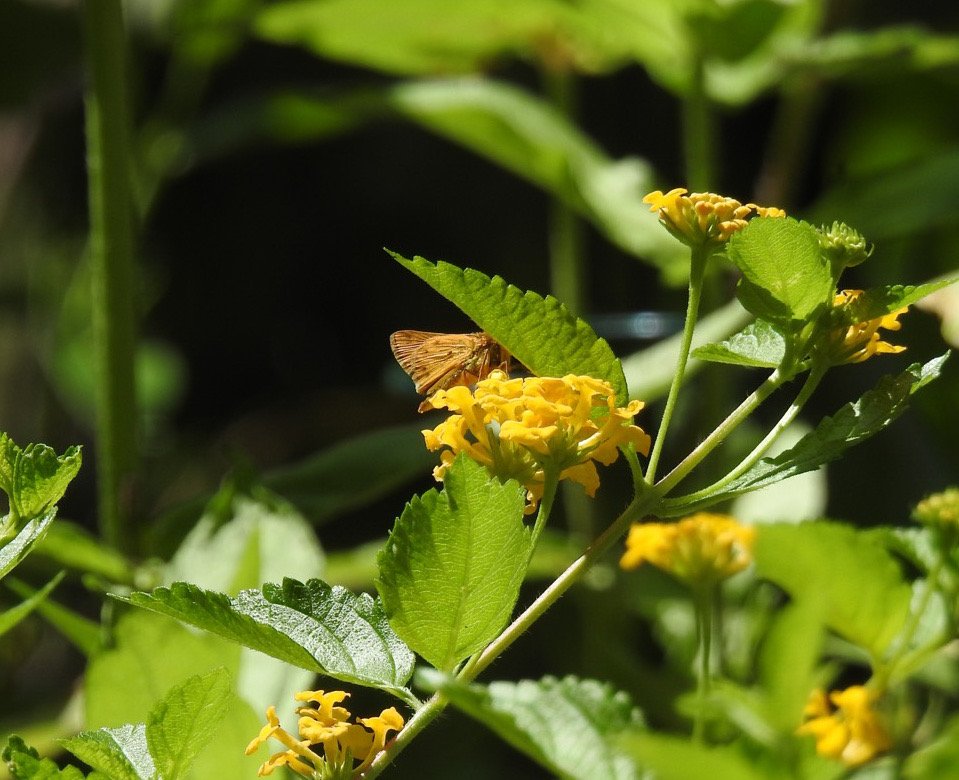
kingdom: Animalia
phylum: Arthropoda
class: Insecta
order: Lepidoptera
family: Hesperiidae
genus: Hylephila
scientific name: Hylephila phyleus
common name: Fiery Skipper
